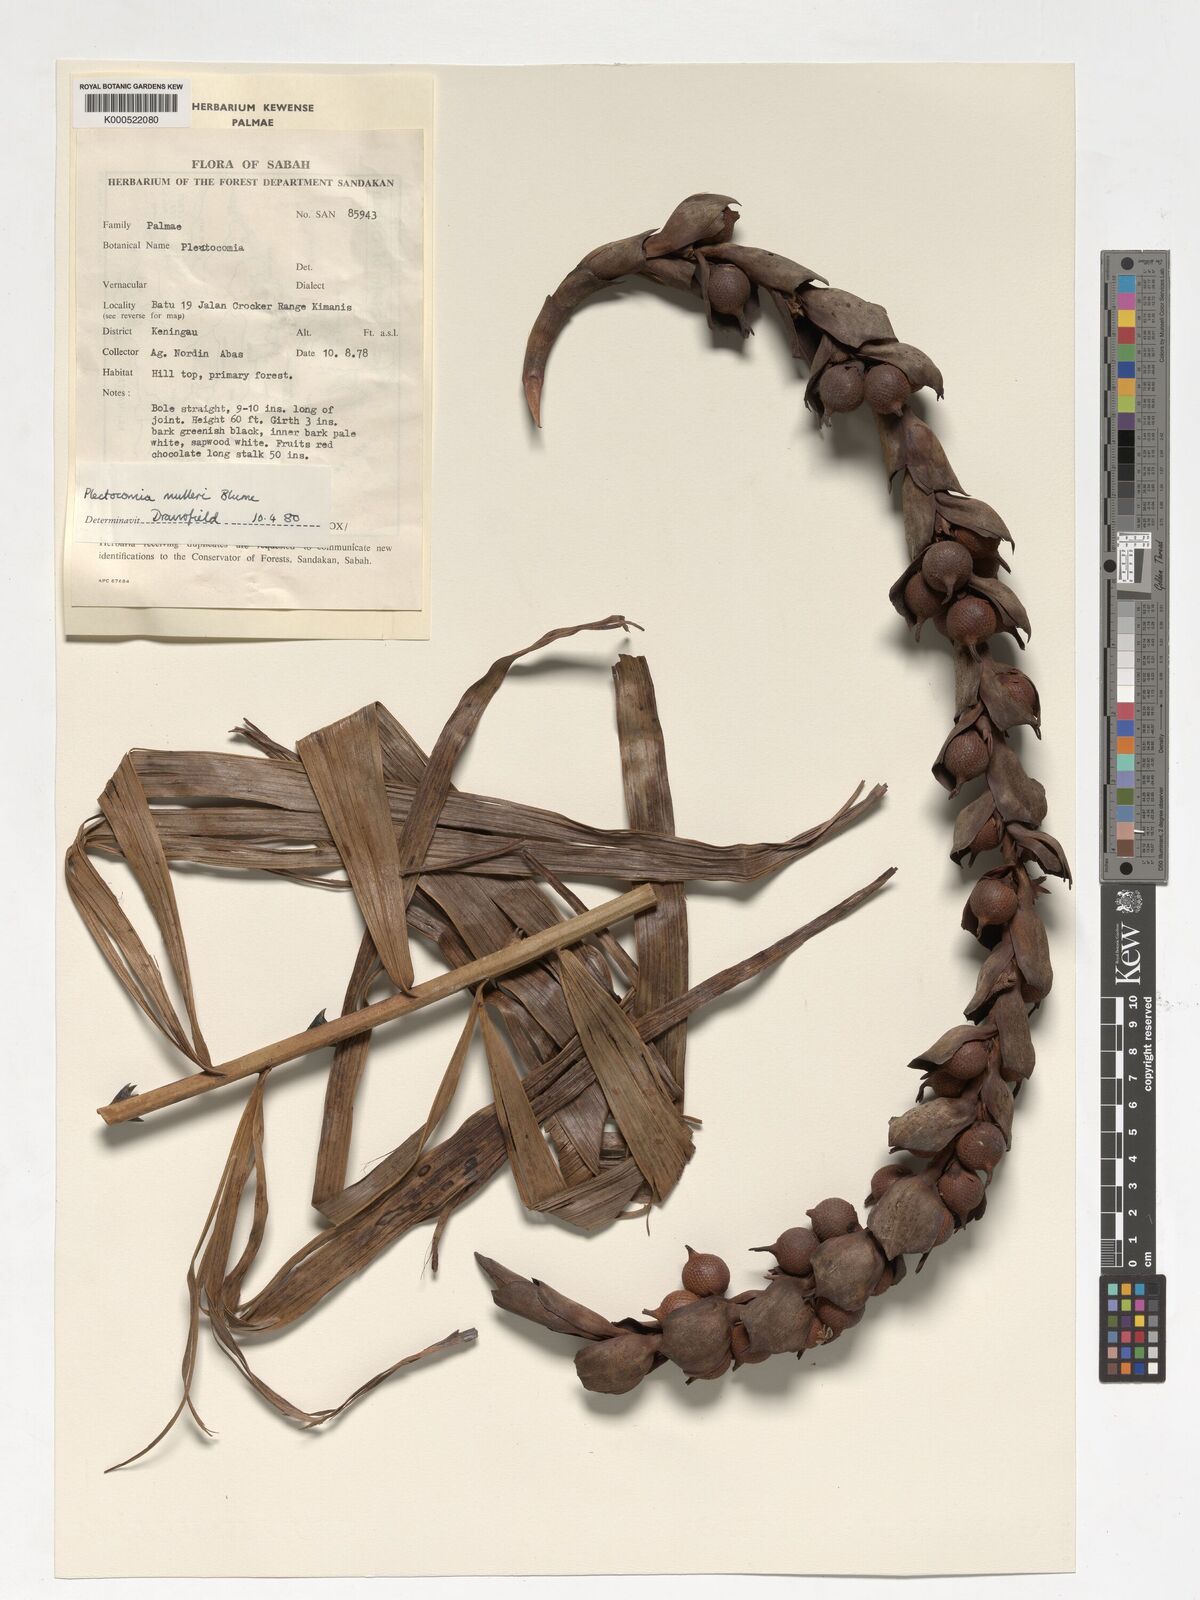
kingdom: Plantae
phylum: Tracheophyta
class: Liliopsida
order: Arecales
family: Arecaceae
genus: Plectocomia
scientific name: Plectocomia mulleri
